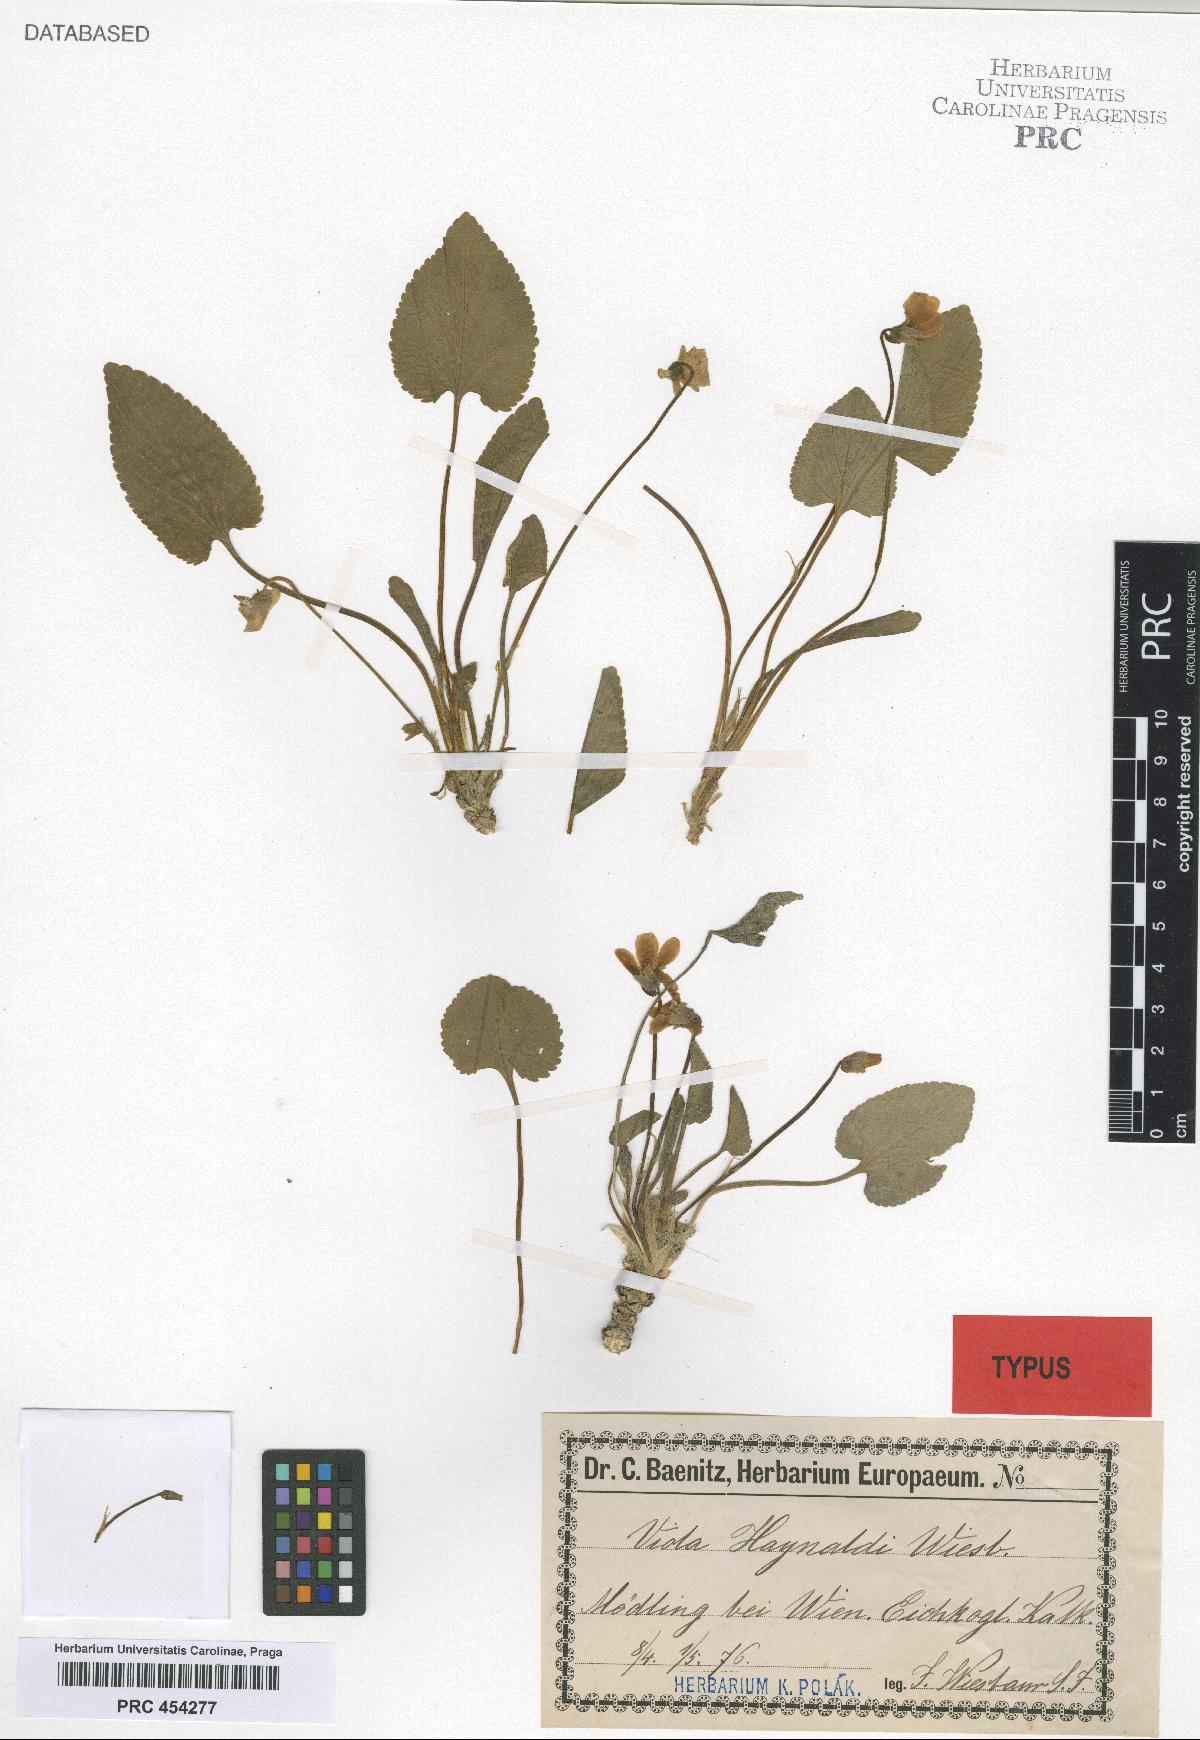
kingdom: Plantae
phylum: Tracheophyta
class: Magnoliopsida
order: Malpighiales
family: Violaceae
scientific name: Violaceae
